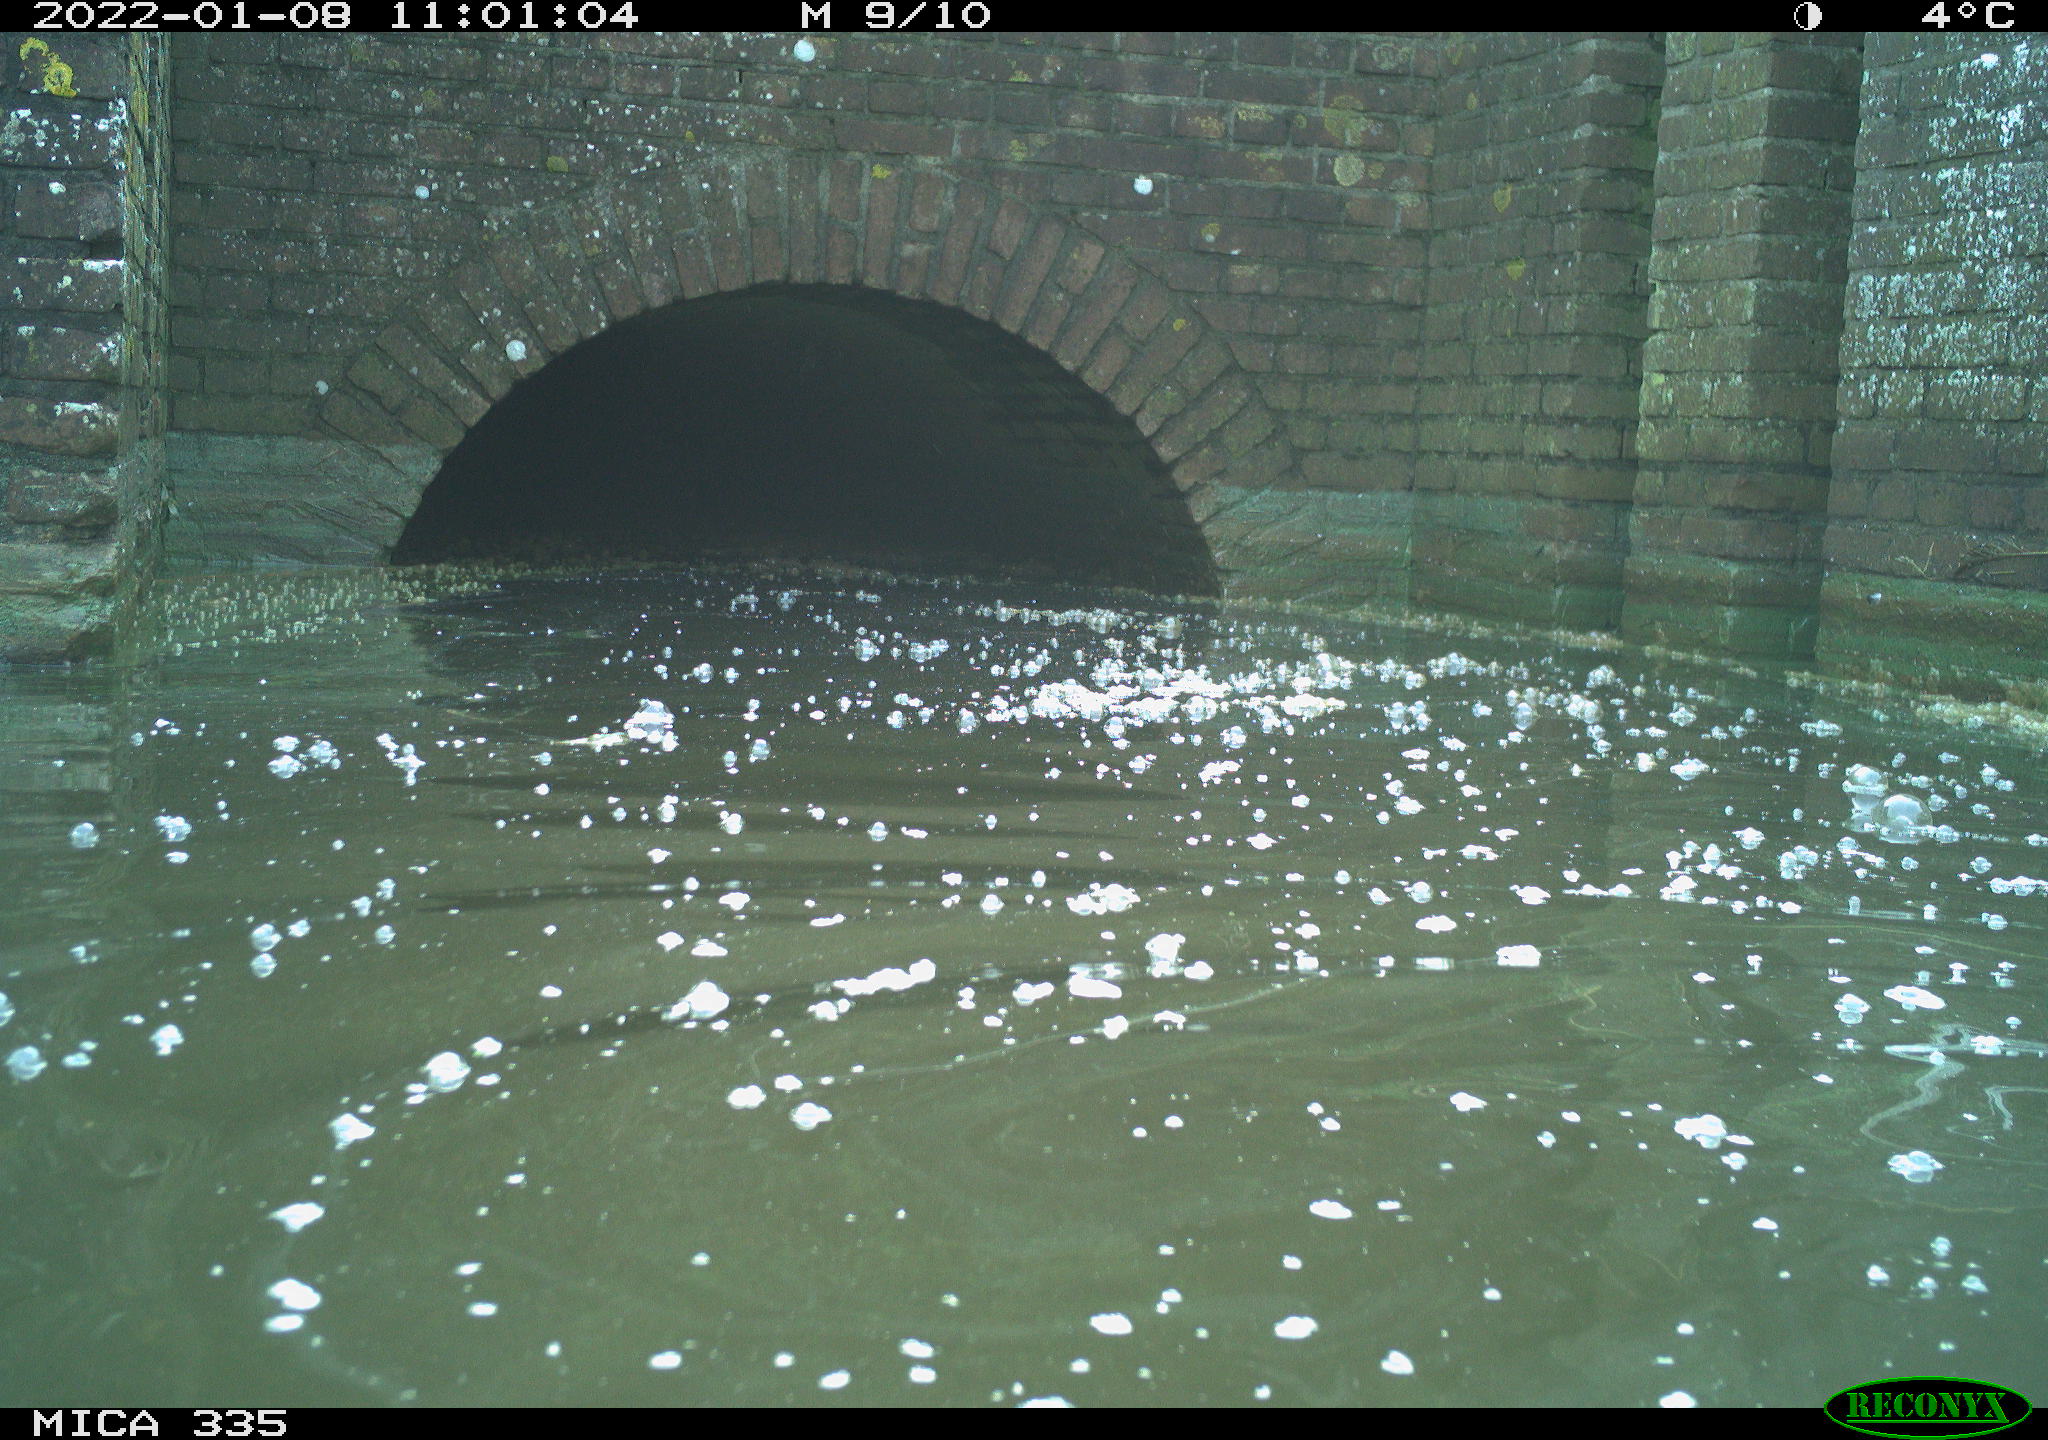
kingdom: Animalia
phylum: Chordata
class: Aves
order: Suliformes
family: Phalacrocoracidae
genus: Phalacrocorax
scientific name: Phalacrocorax carbo
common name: Great cormorant
